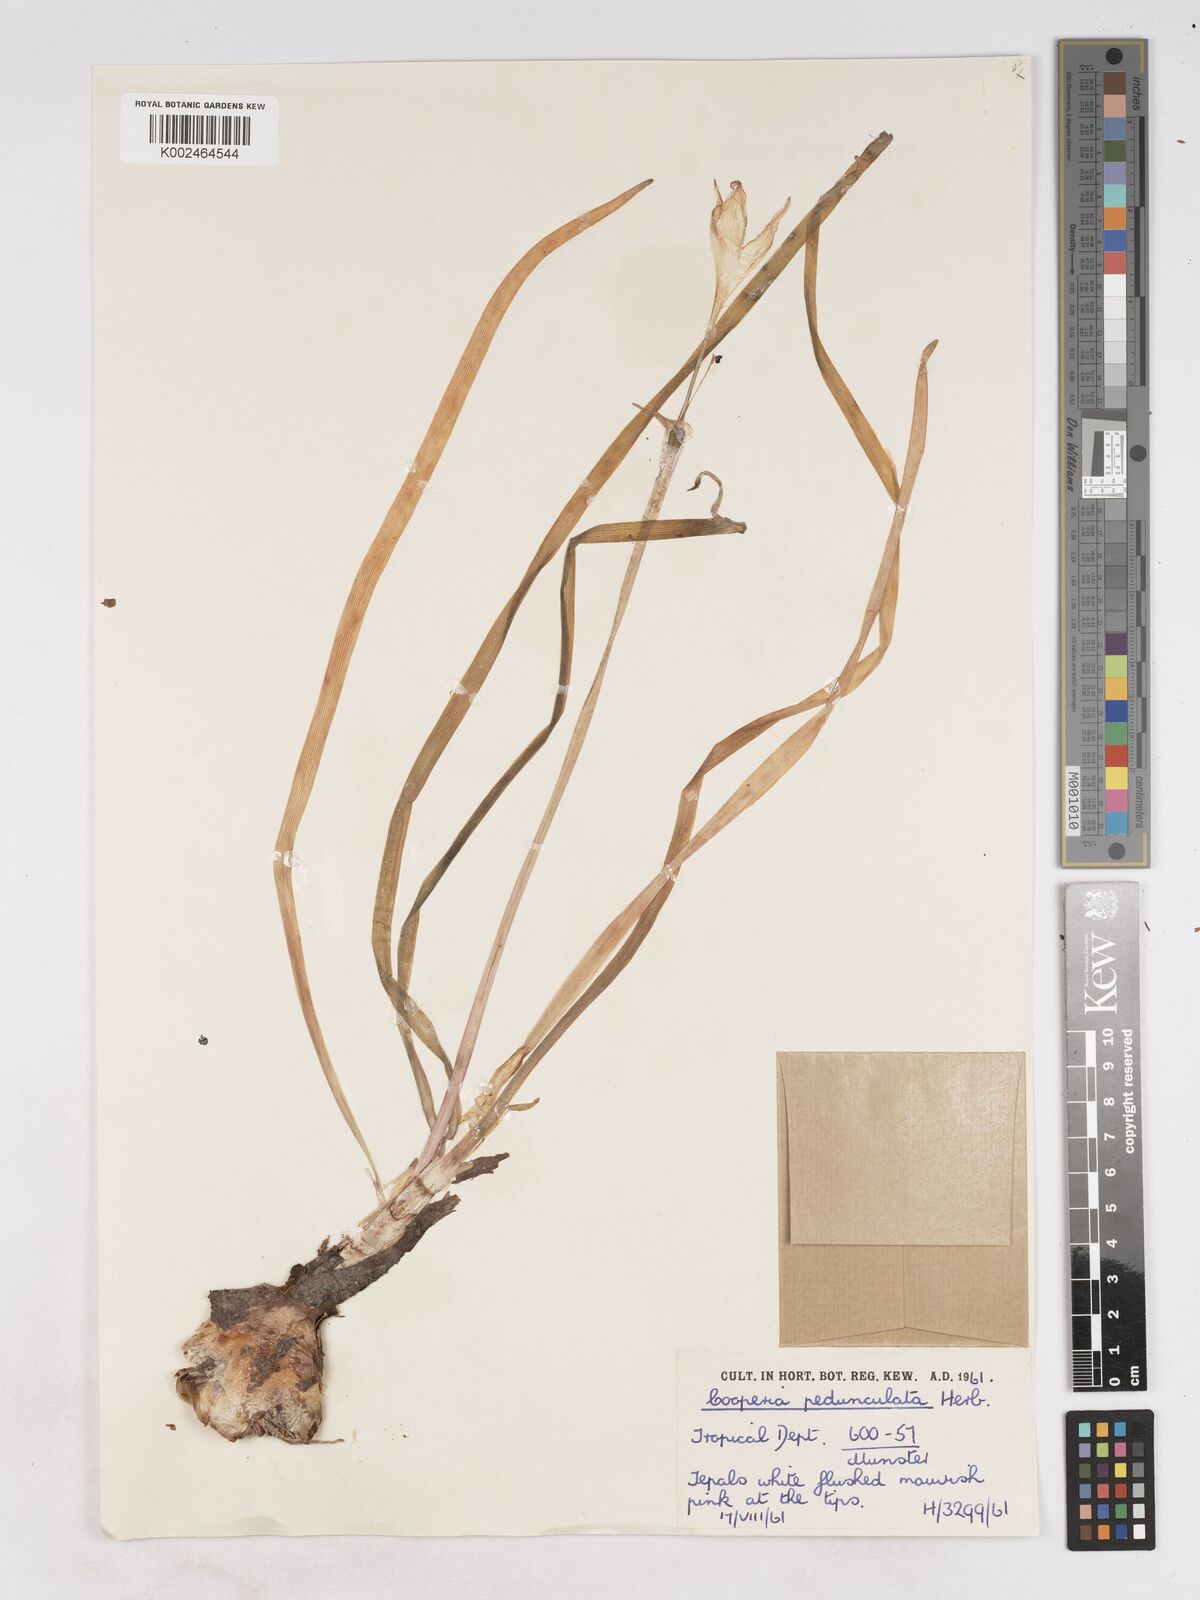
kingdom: Plantae
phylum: Tracheophyta
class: Liliopsida
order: Asparagales
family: Amaryllidaceae
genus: Zephyranthes
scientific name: Zephyranthes drummondii
